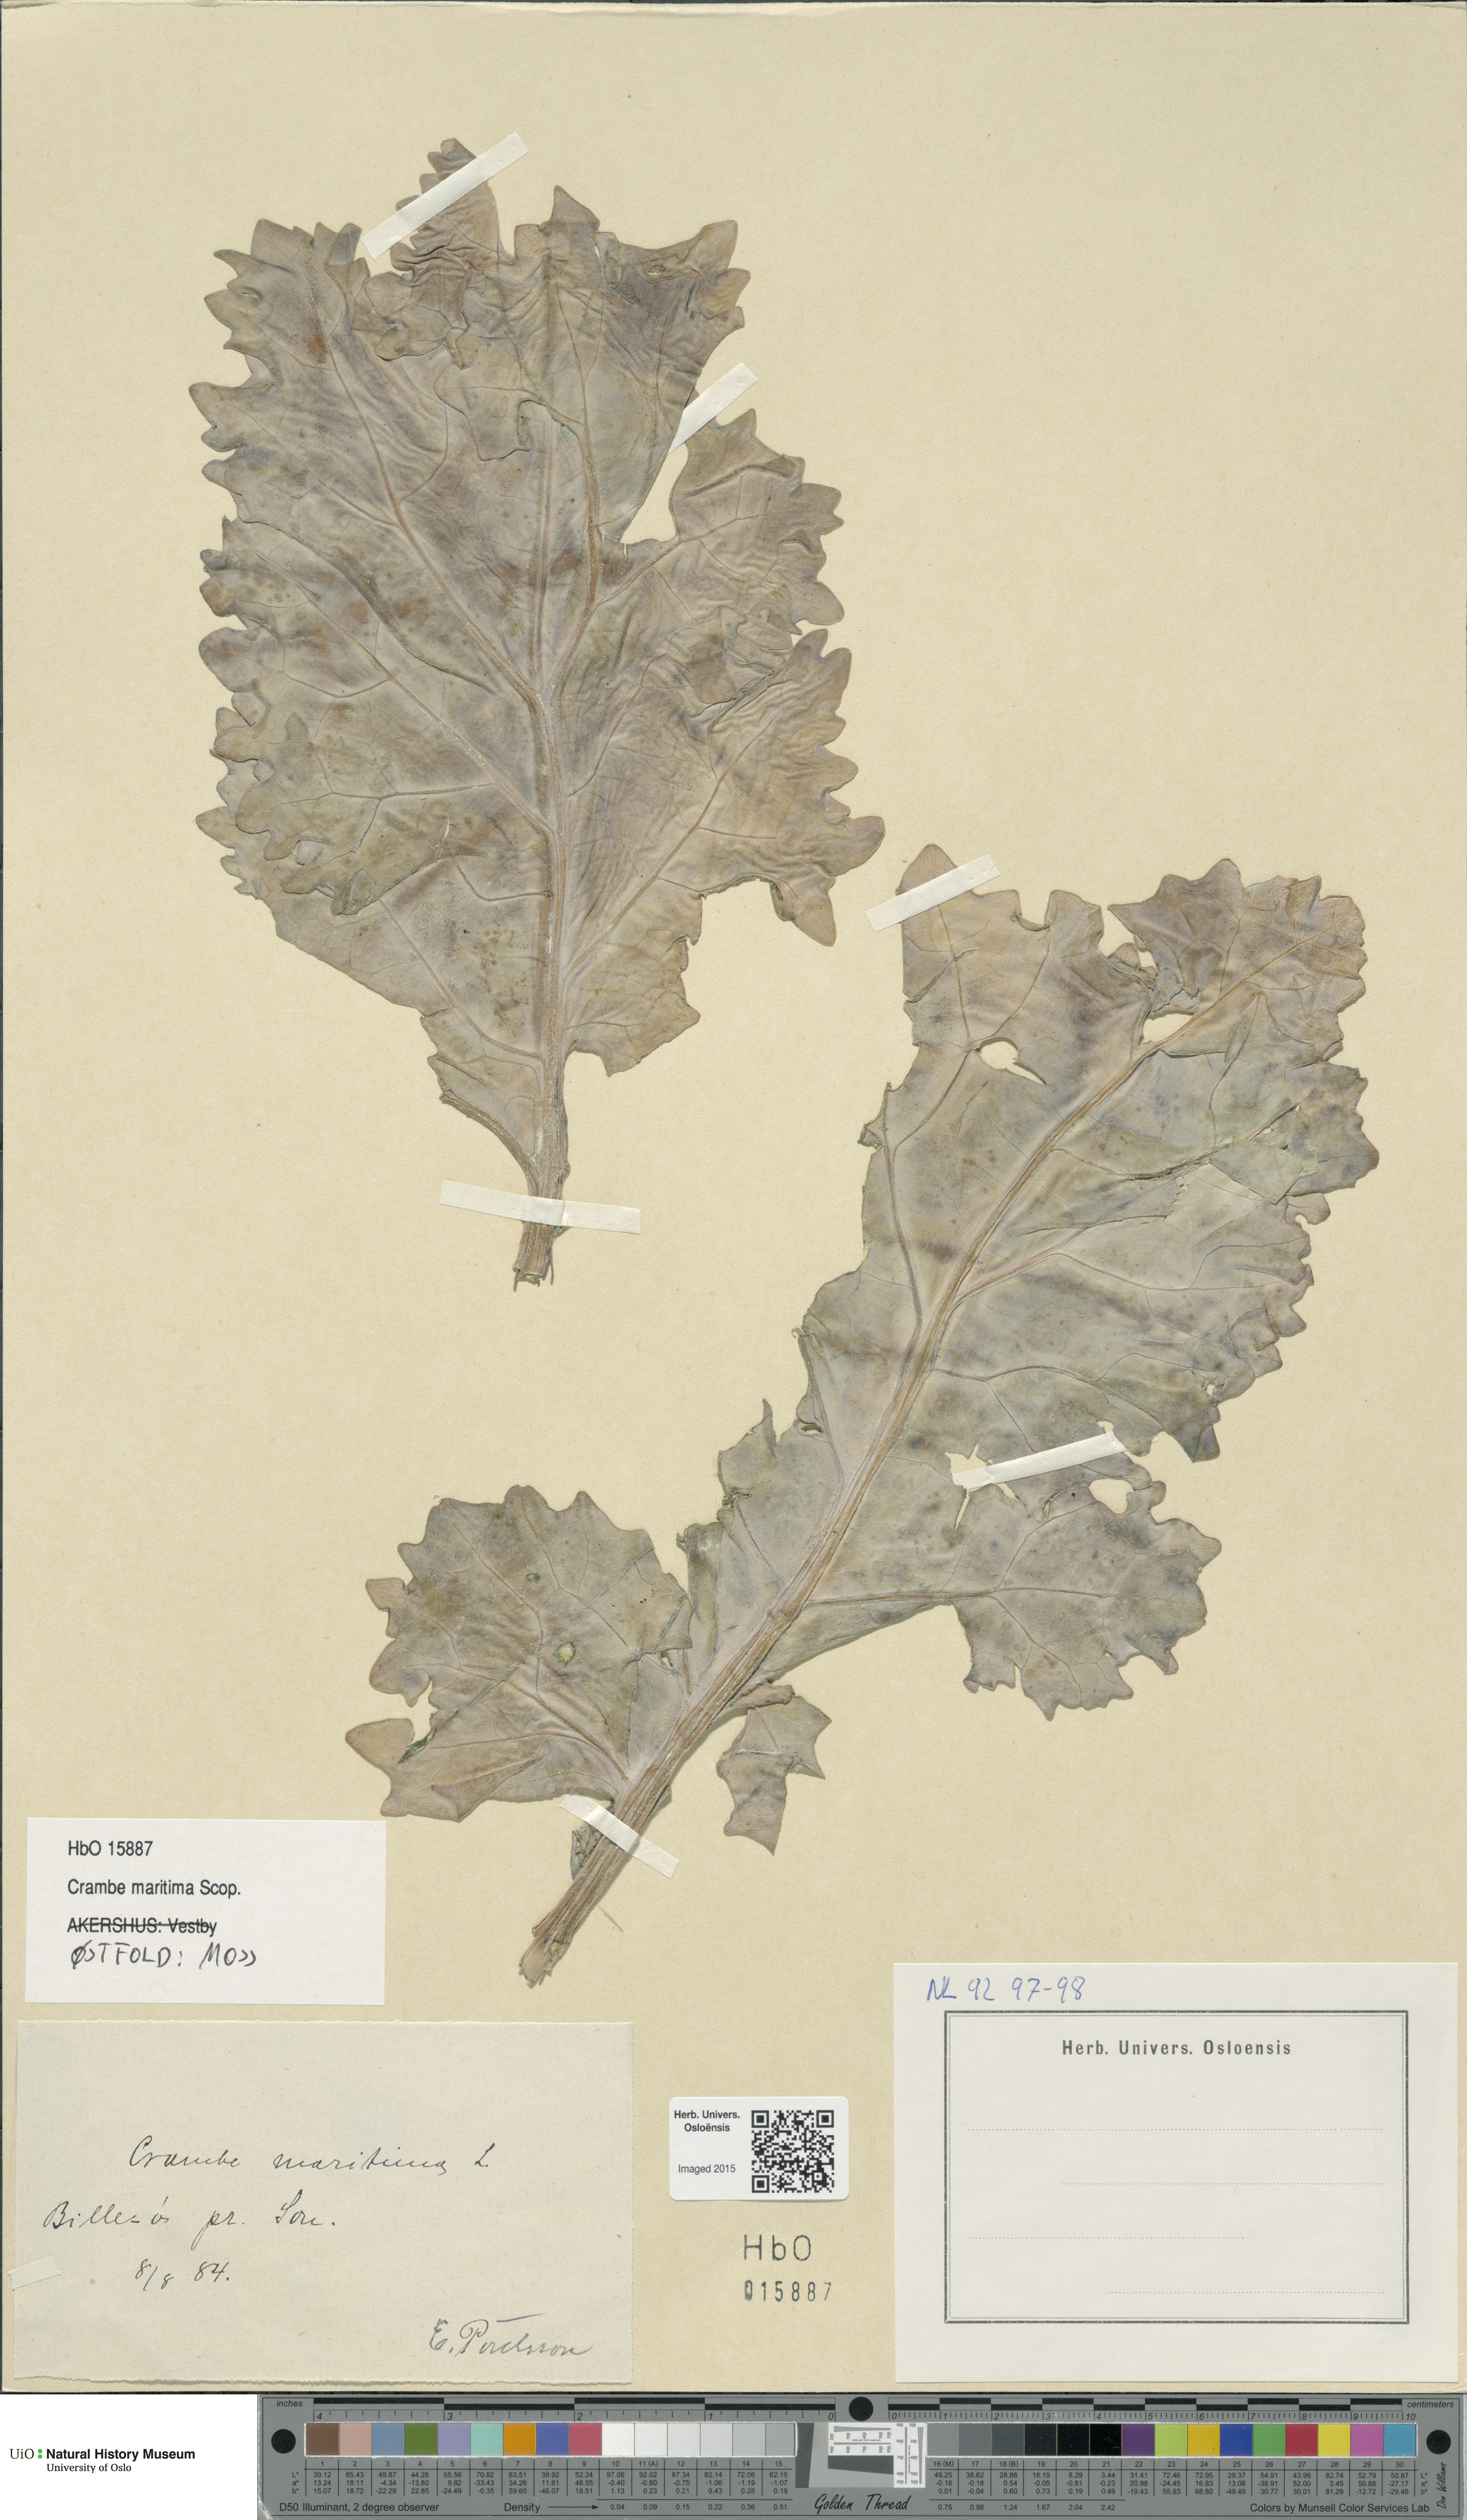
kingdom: Plantae
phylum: Tracheophyta
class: Magnoliopsida
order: Brassicales
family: Brassicaceae
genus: Crambe
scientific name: Crambe maritima
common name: Sea-kale
